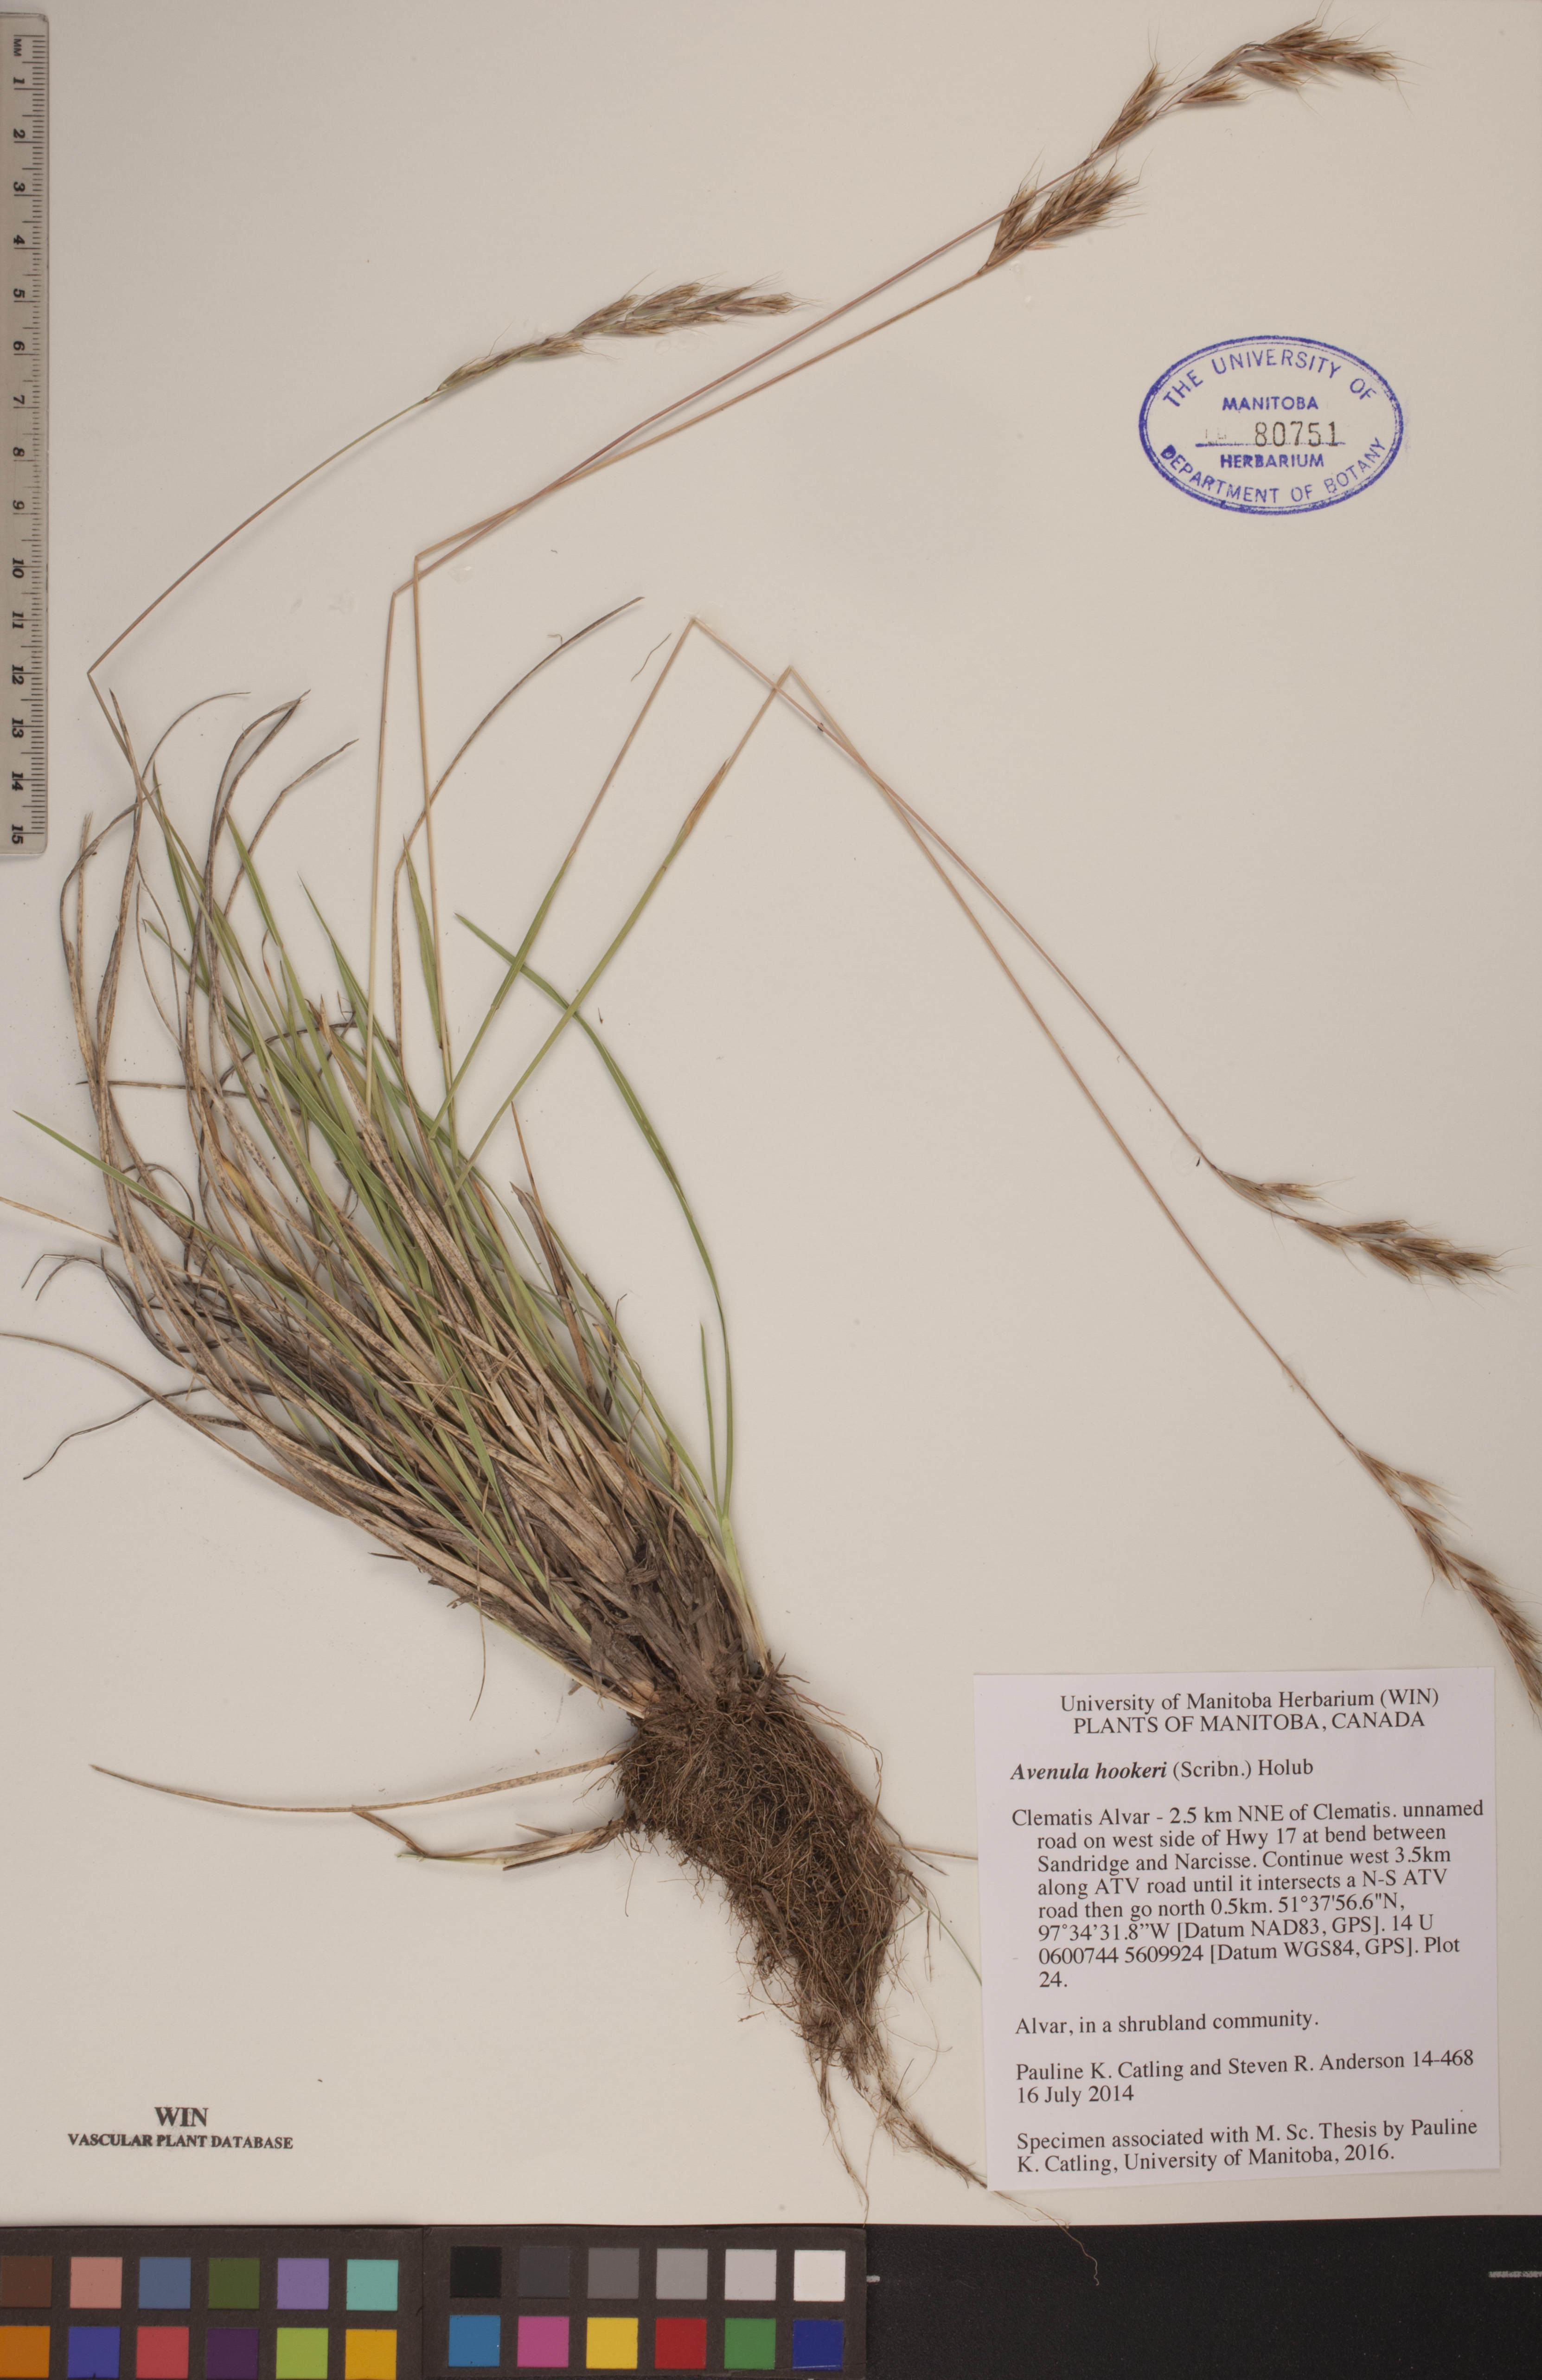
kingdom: Plantae
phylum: Tracheophyta
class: Liliopsida
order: Poales
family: Poaceae
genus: Helictochloa
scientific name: Helictochloa hookeri
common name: Hooker's alpine oatgrass
